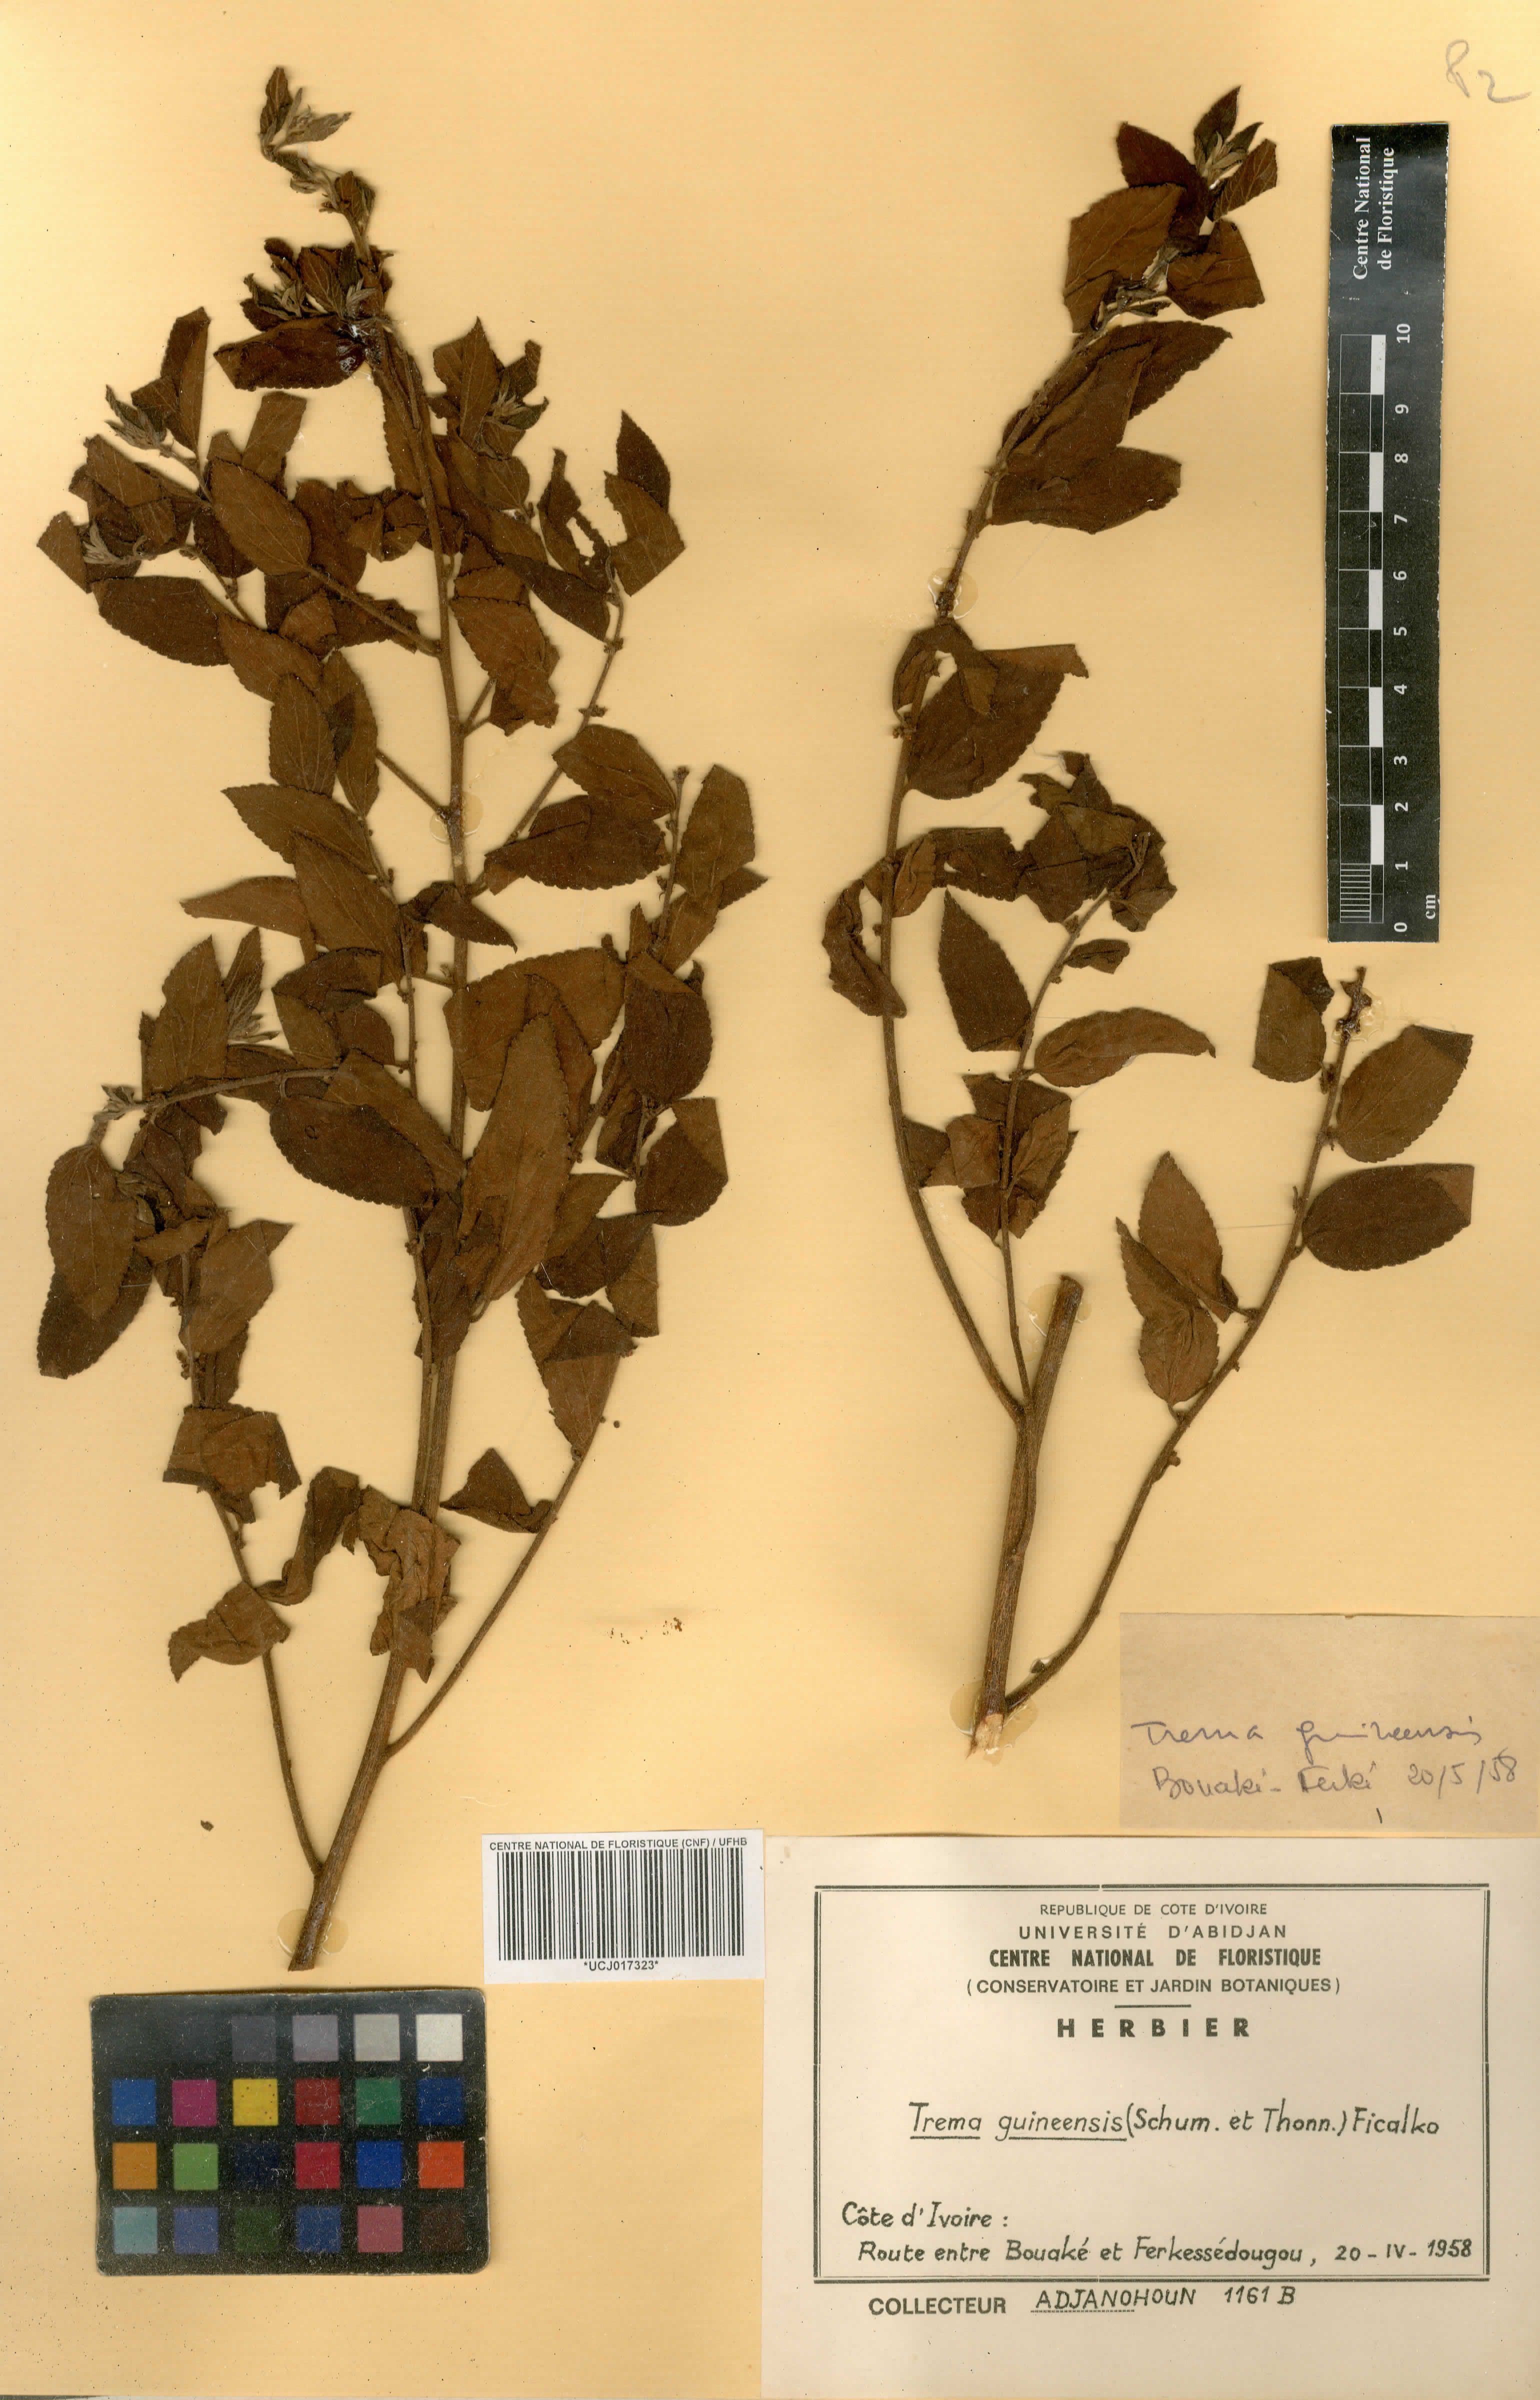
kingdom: Plantae
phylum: Tracheophyta
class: Magnoliopsida
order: Rosales
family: Cannabaceae
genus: Trema
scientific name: Trema orientale
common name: Indian charcoal tree
